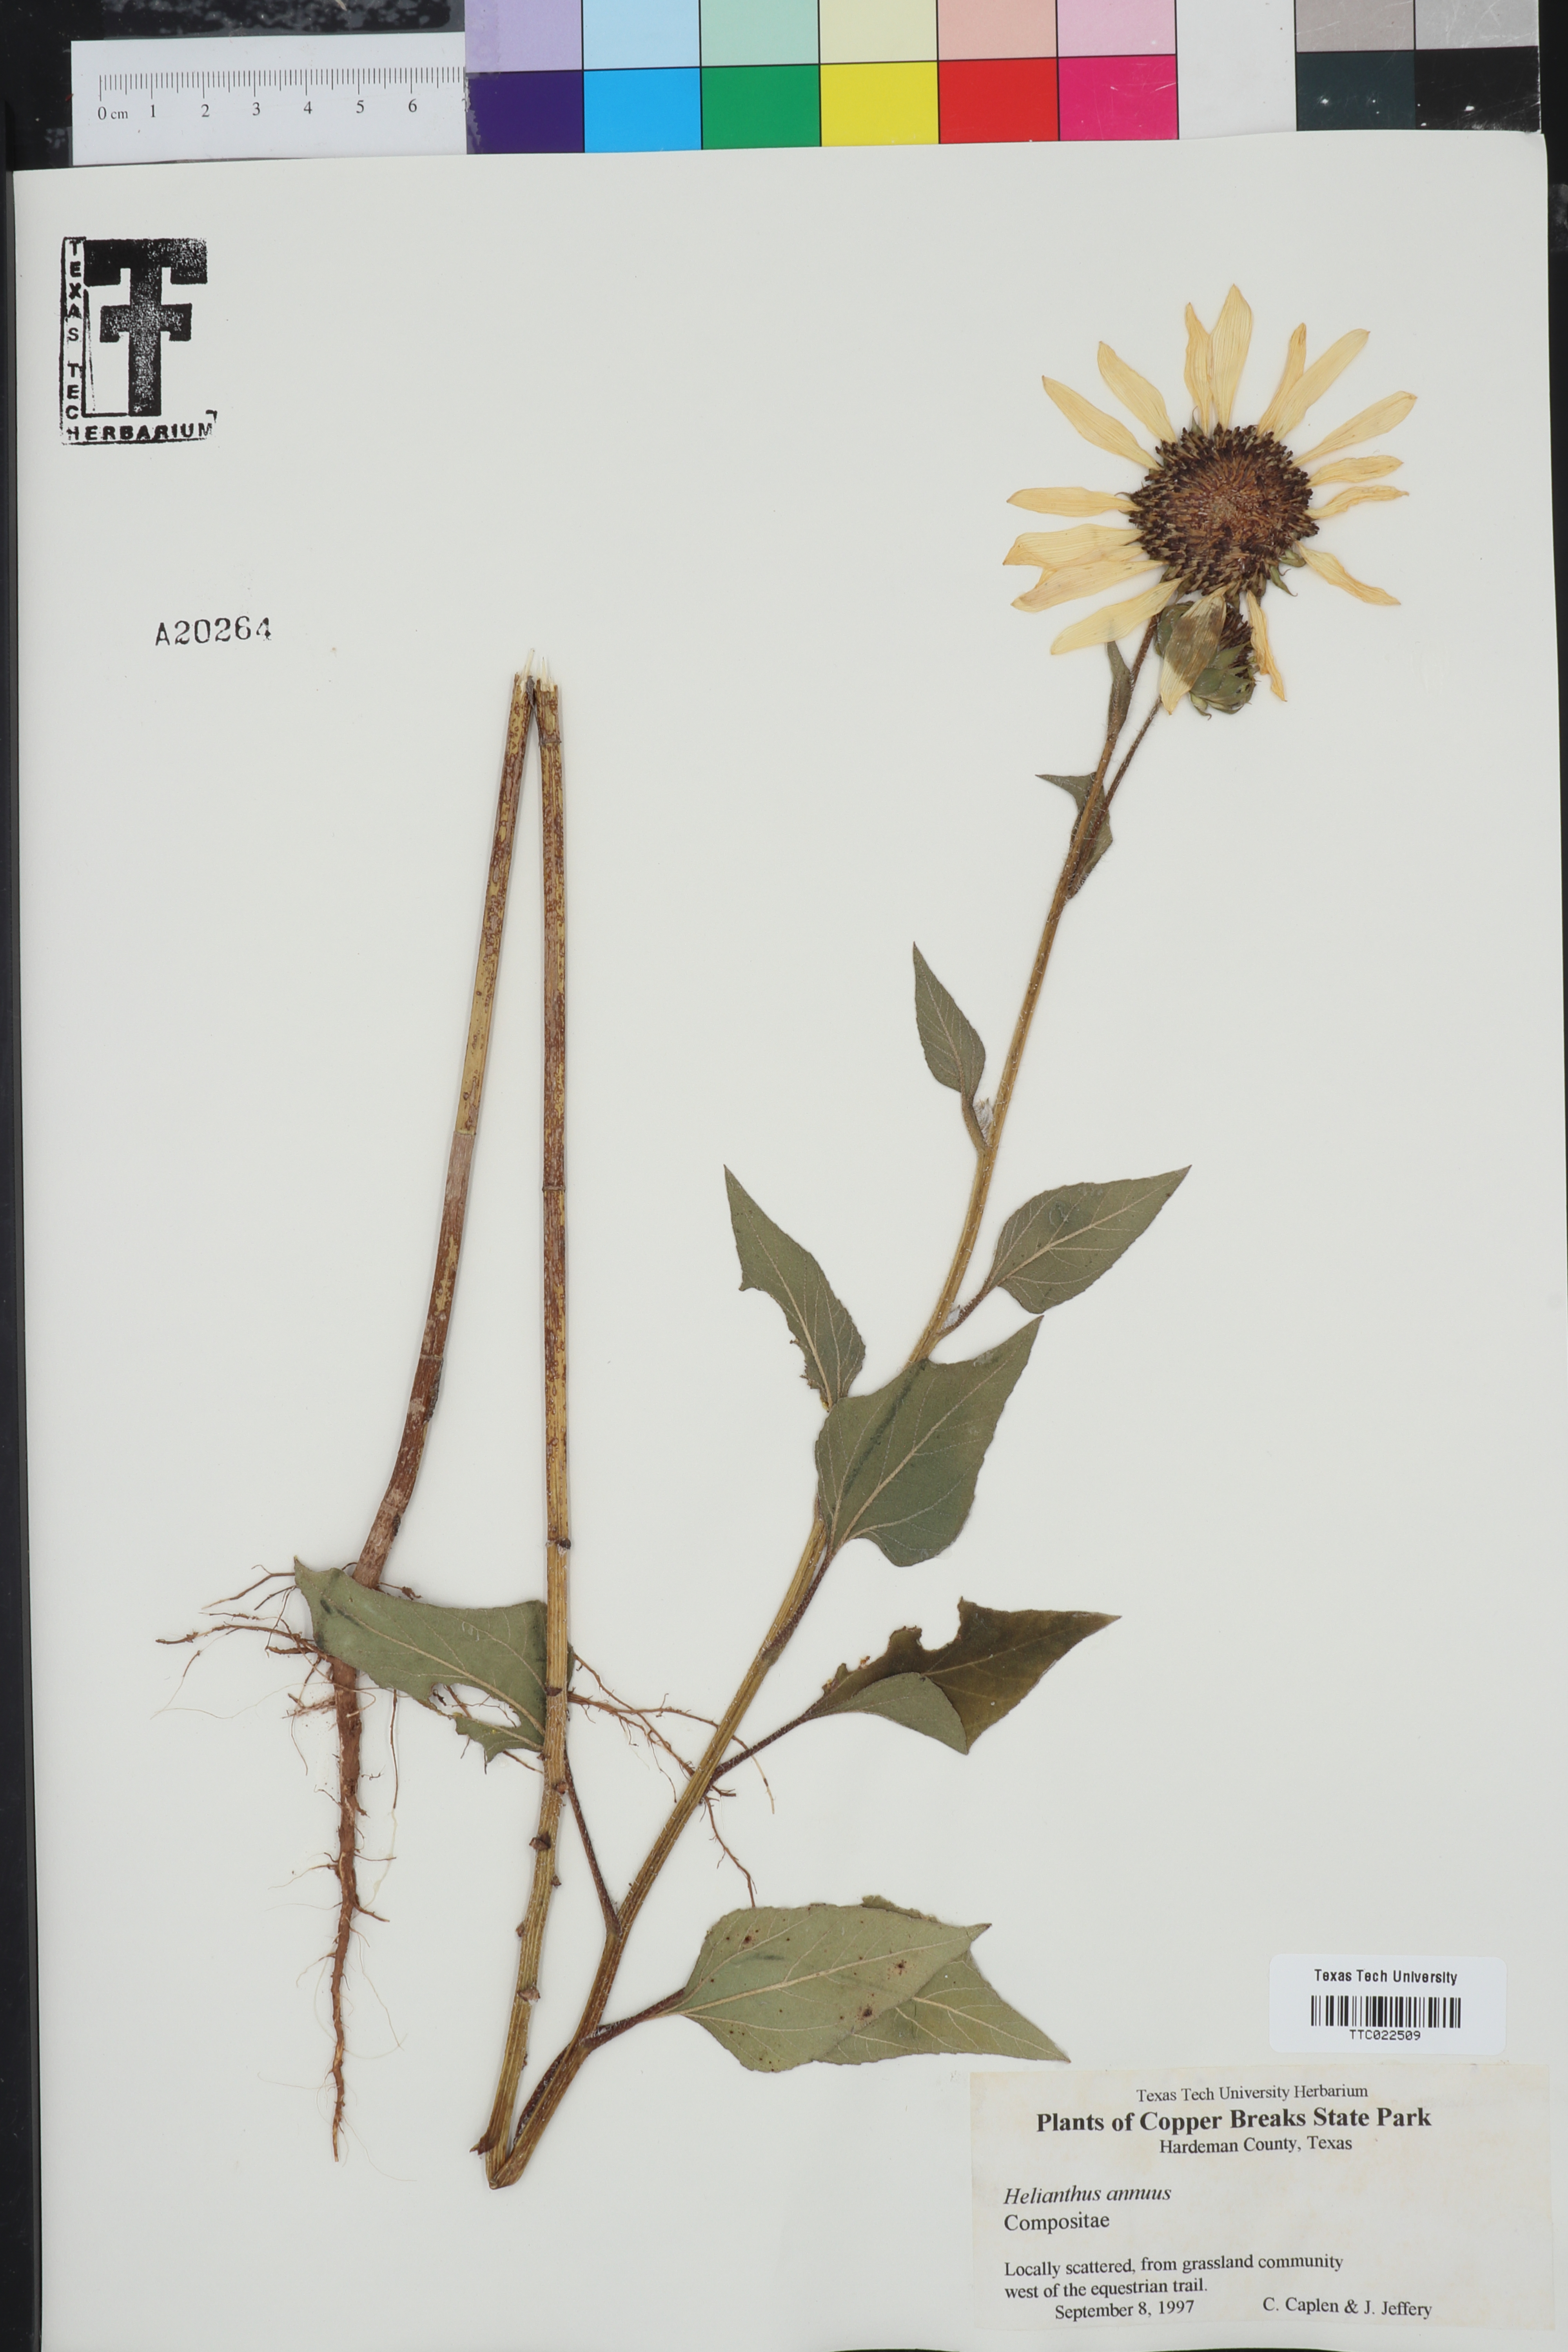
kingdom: Plantae
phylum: Tracheophyta
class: Magnoliopsida
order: Asterales
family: Asteraceae
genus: Helianthus
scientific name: Helianthus annuus
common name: Sunflower
